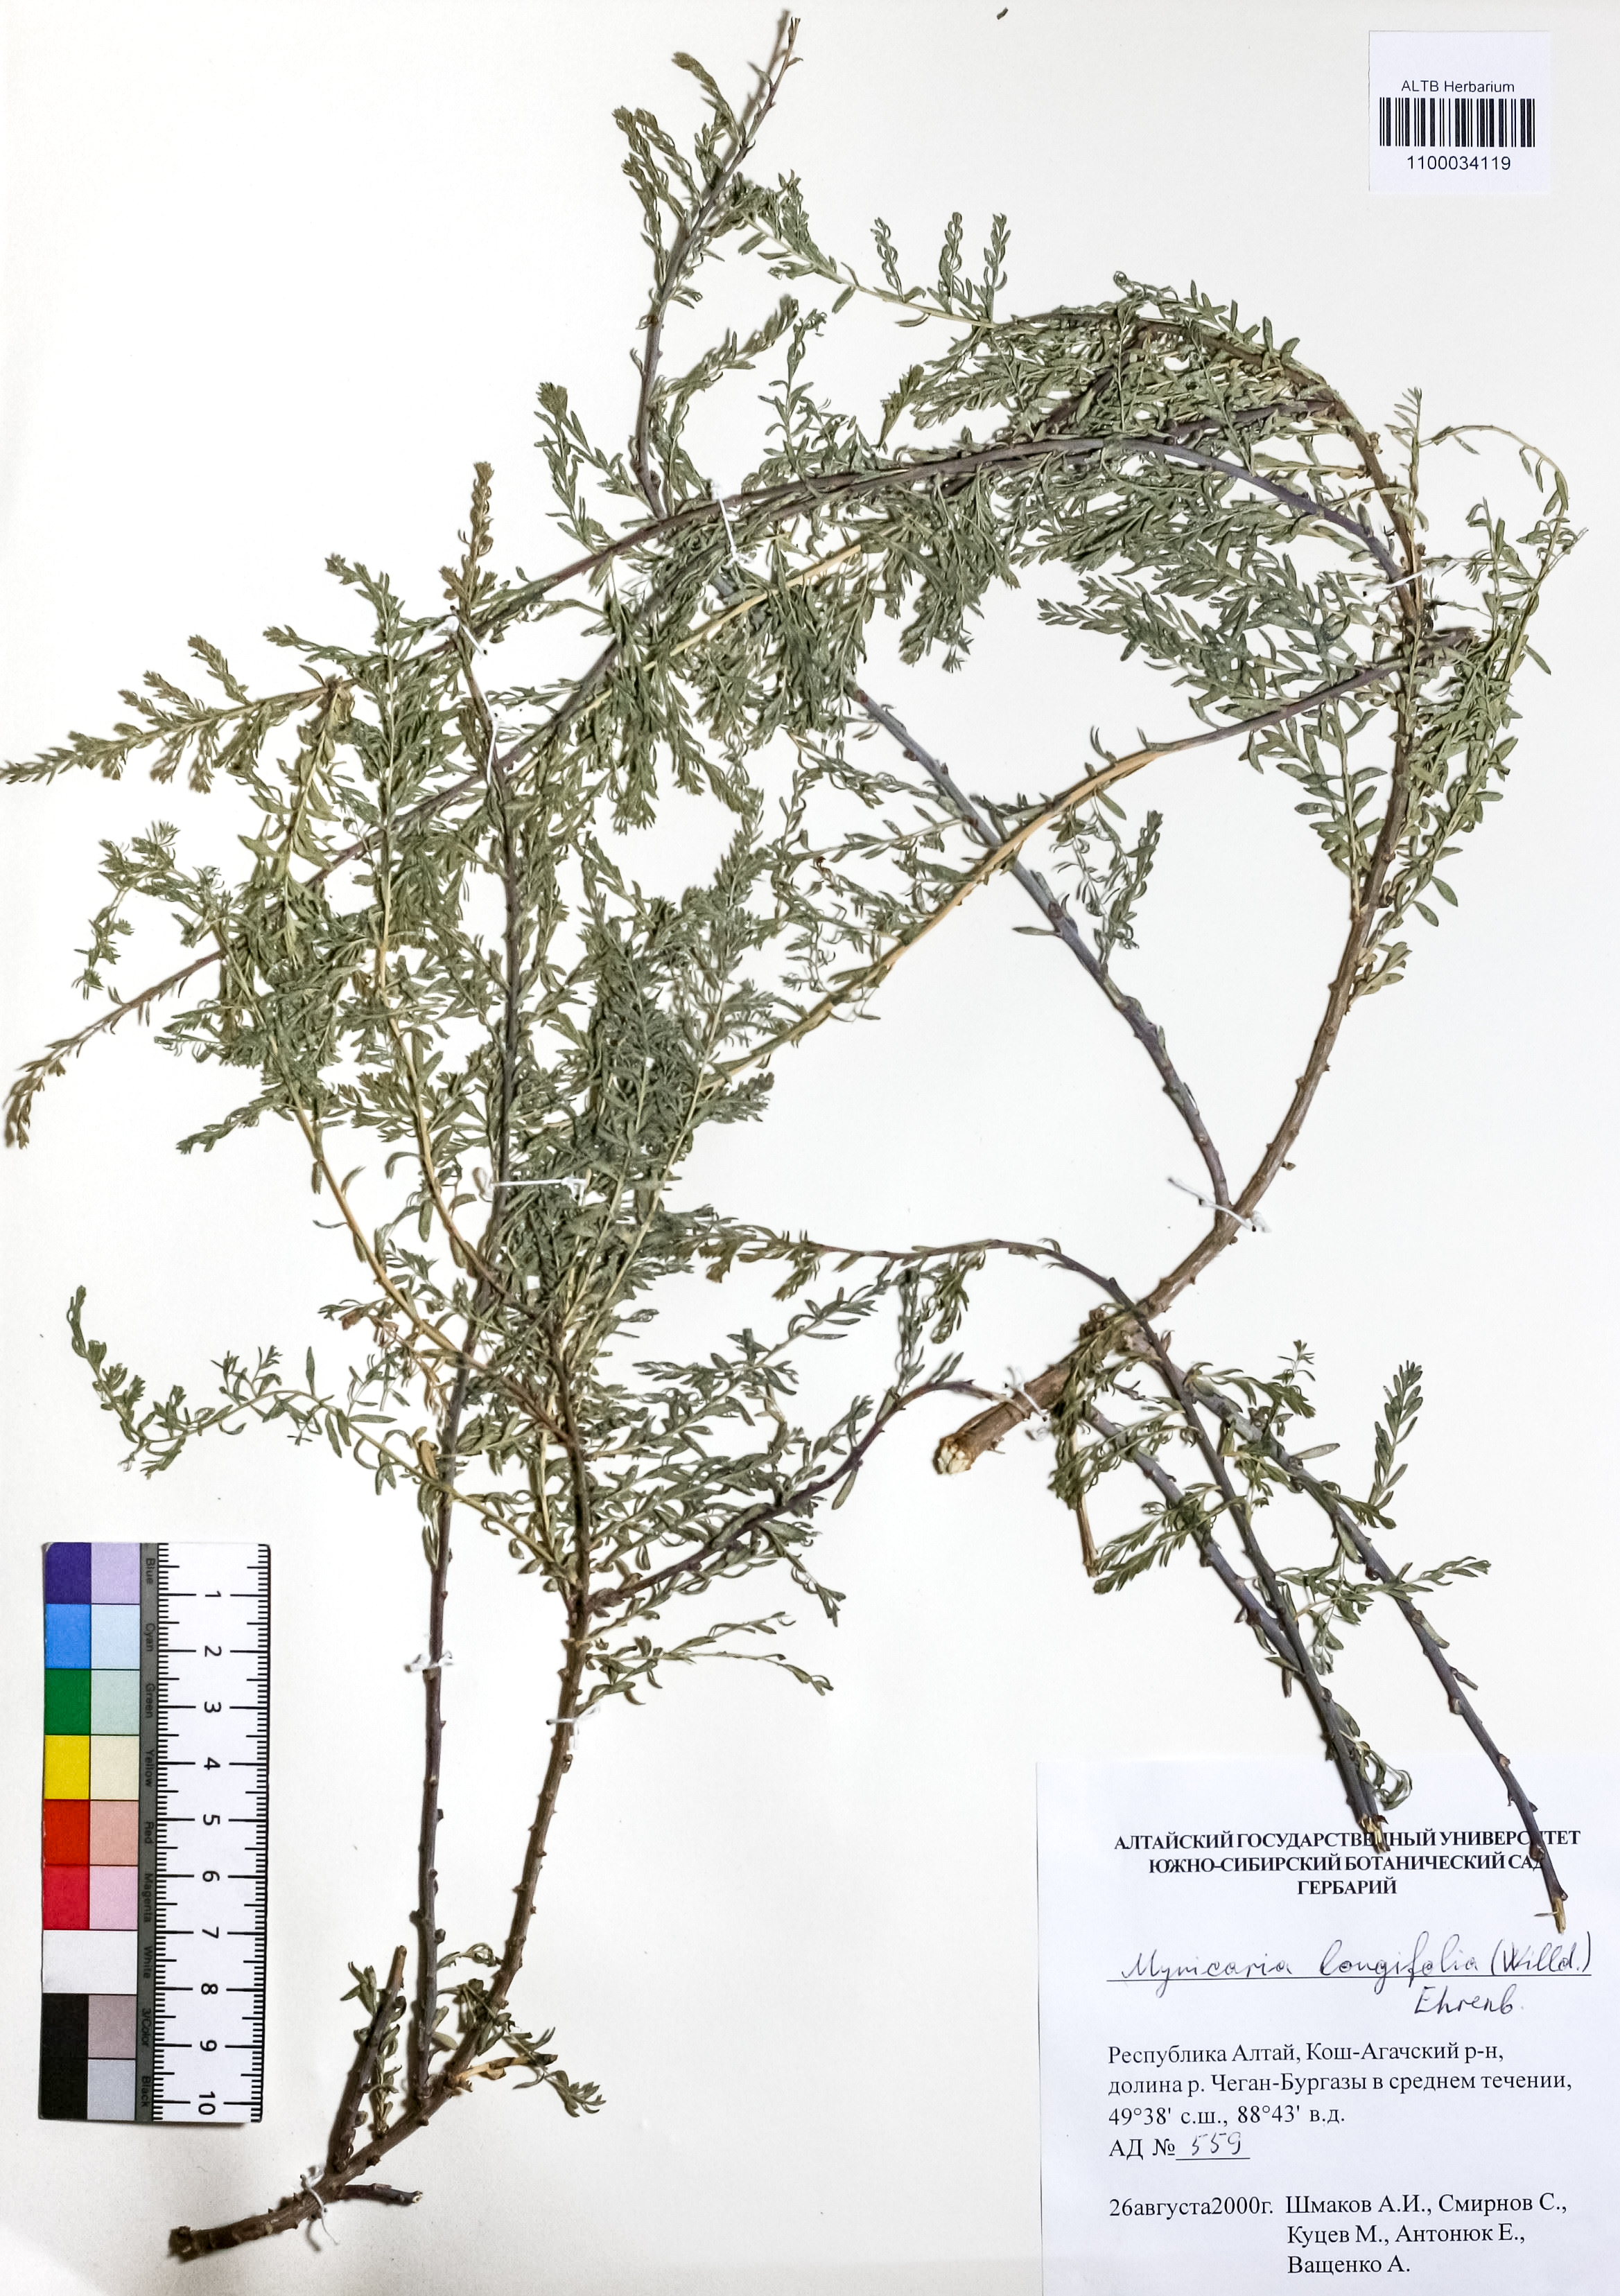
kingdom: Plantae
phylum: Tracheophyta
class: Magnoliopsida
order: Caryophyllales
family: Tamaricaceae
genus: Myricaria
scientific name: Myricaria longifolia
